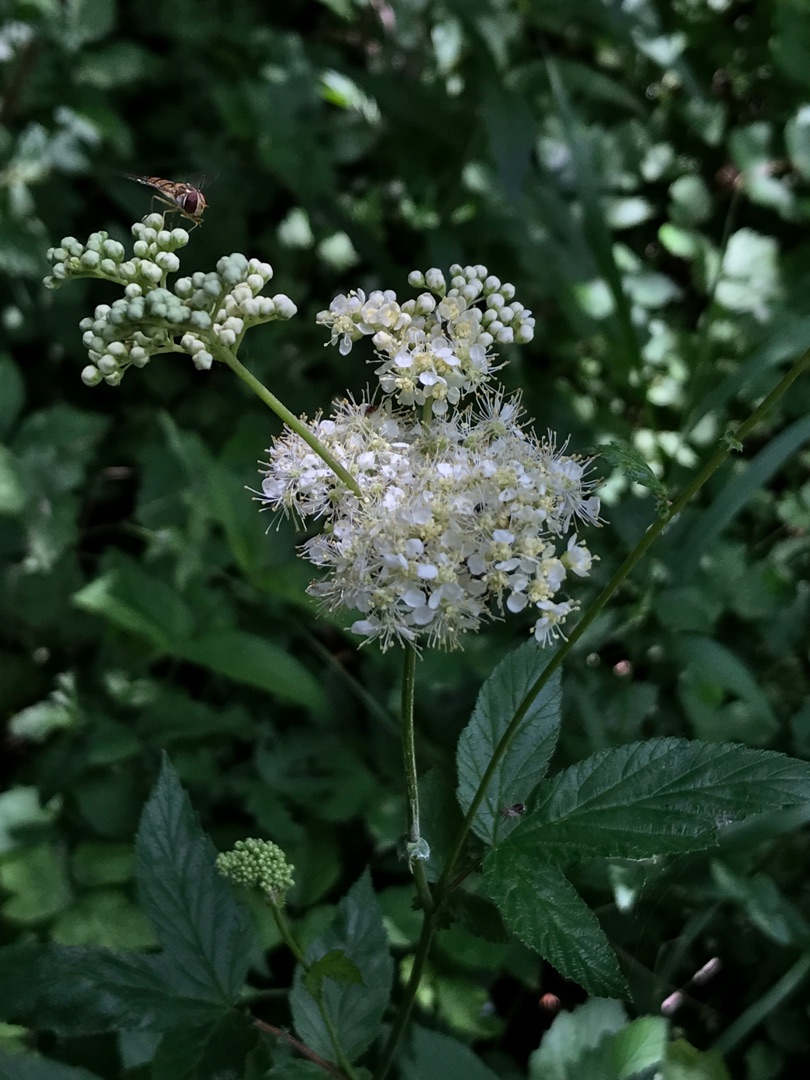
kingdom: Plantae
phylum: Tracheophyta
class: Magnoliopsida
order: Rosales
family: Rosaceae
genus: Filipendula
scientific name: Filipendula ulmaria
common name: Almindelig mjødurt
